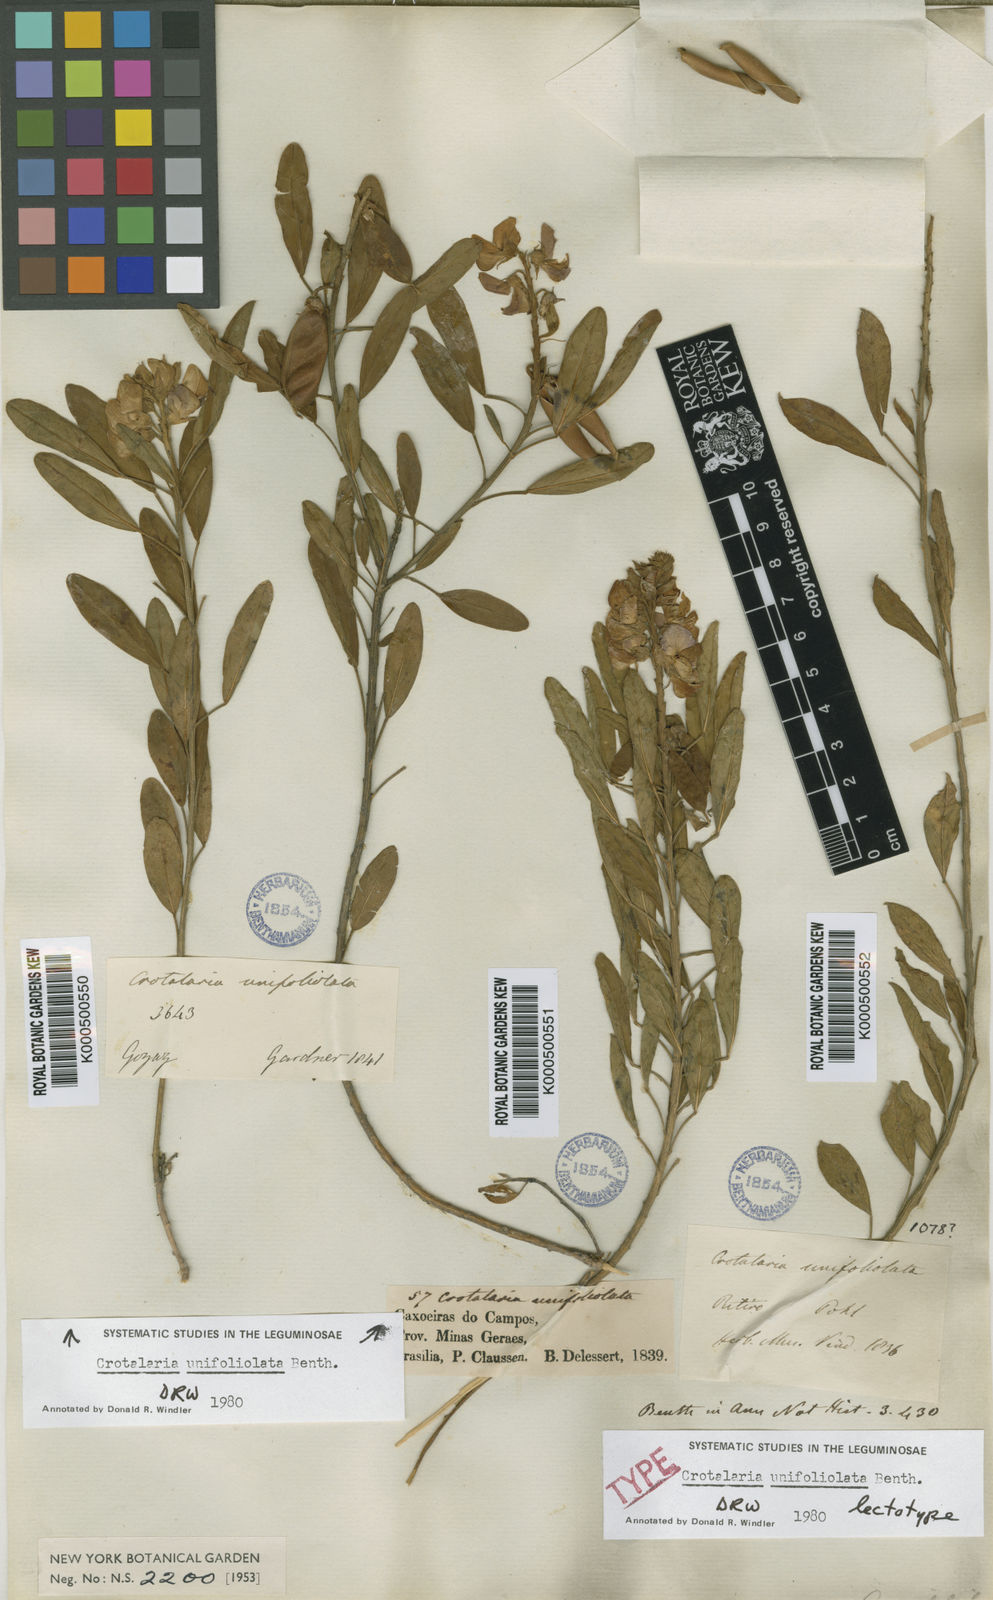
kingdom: Plantae
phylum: Tracheophyta
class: Magnoliopsida
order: Fabales
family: Fabaceae
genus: Crotalaria
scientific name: Crotalaria unifoliolata
